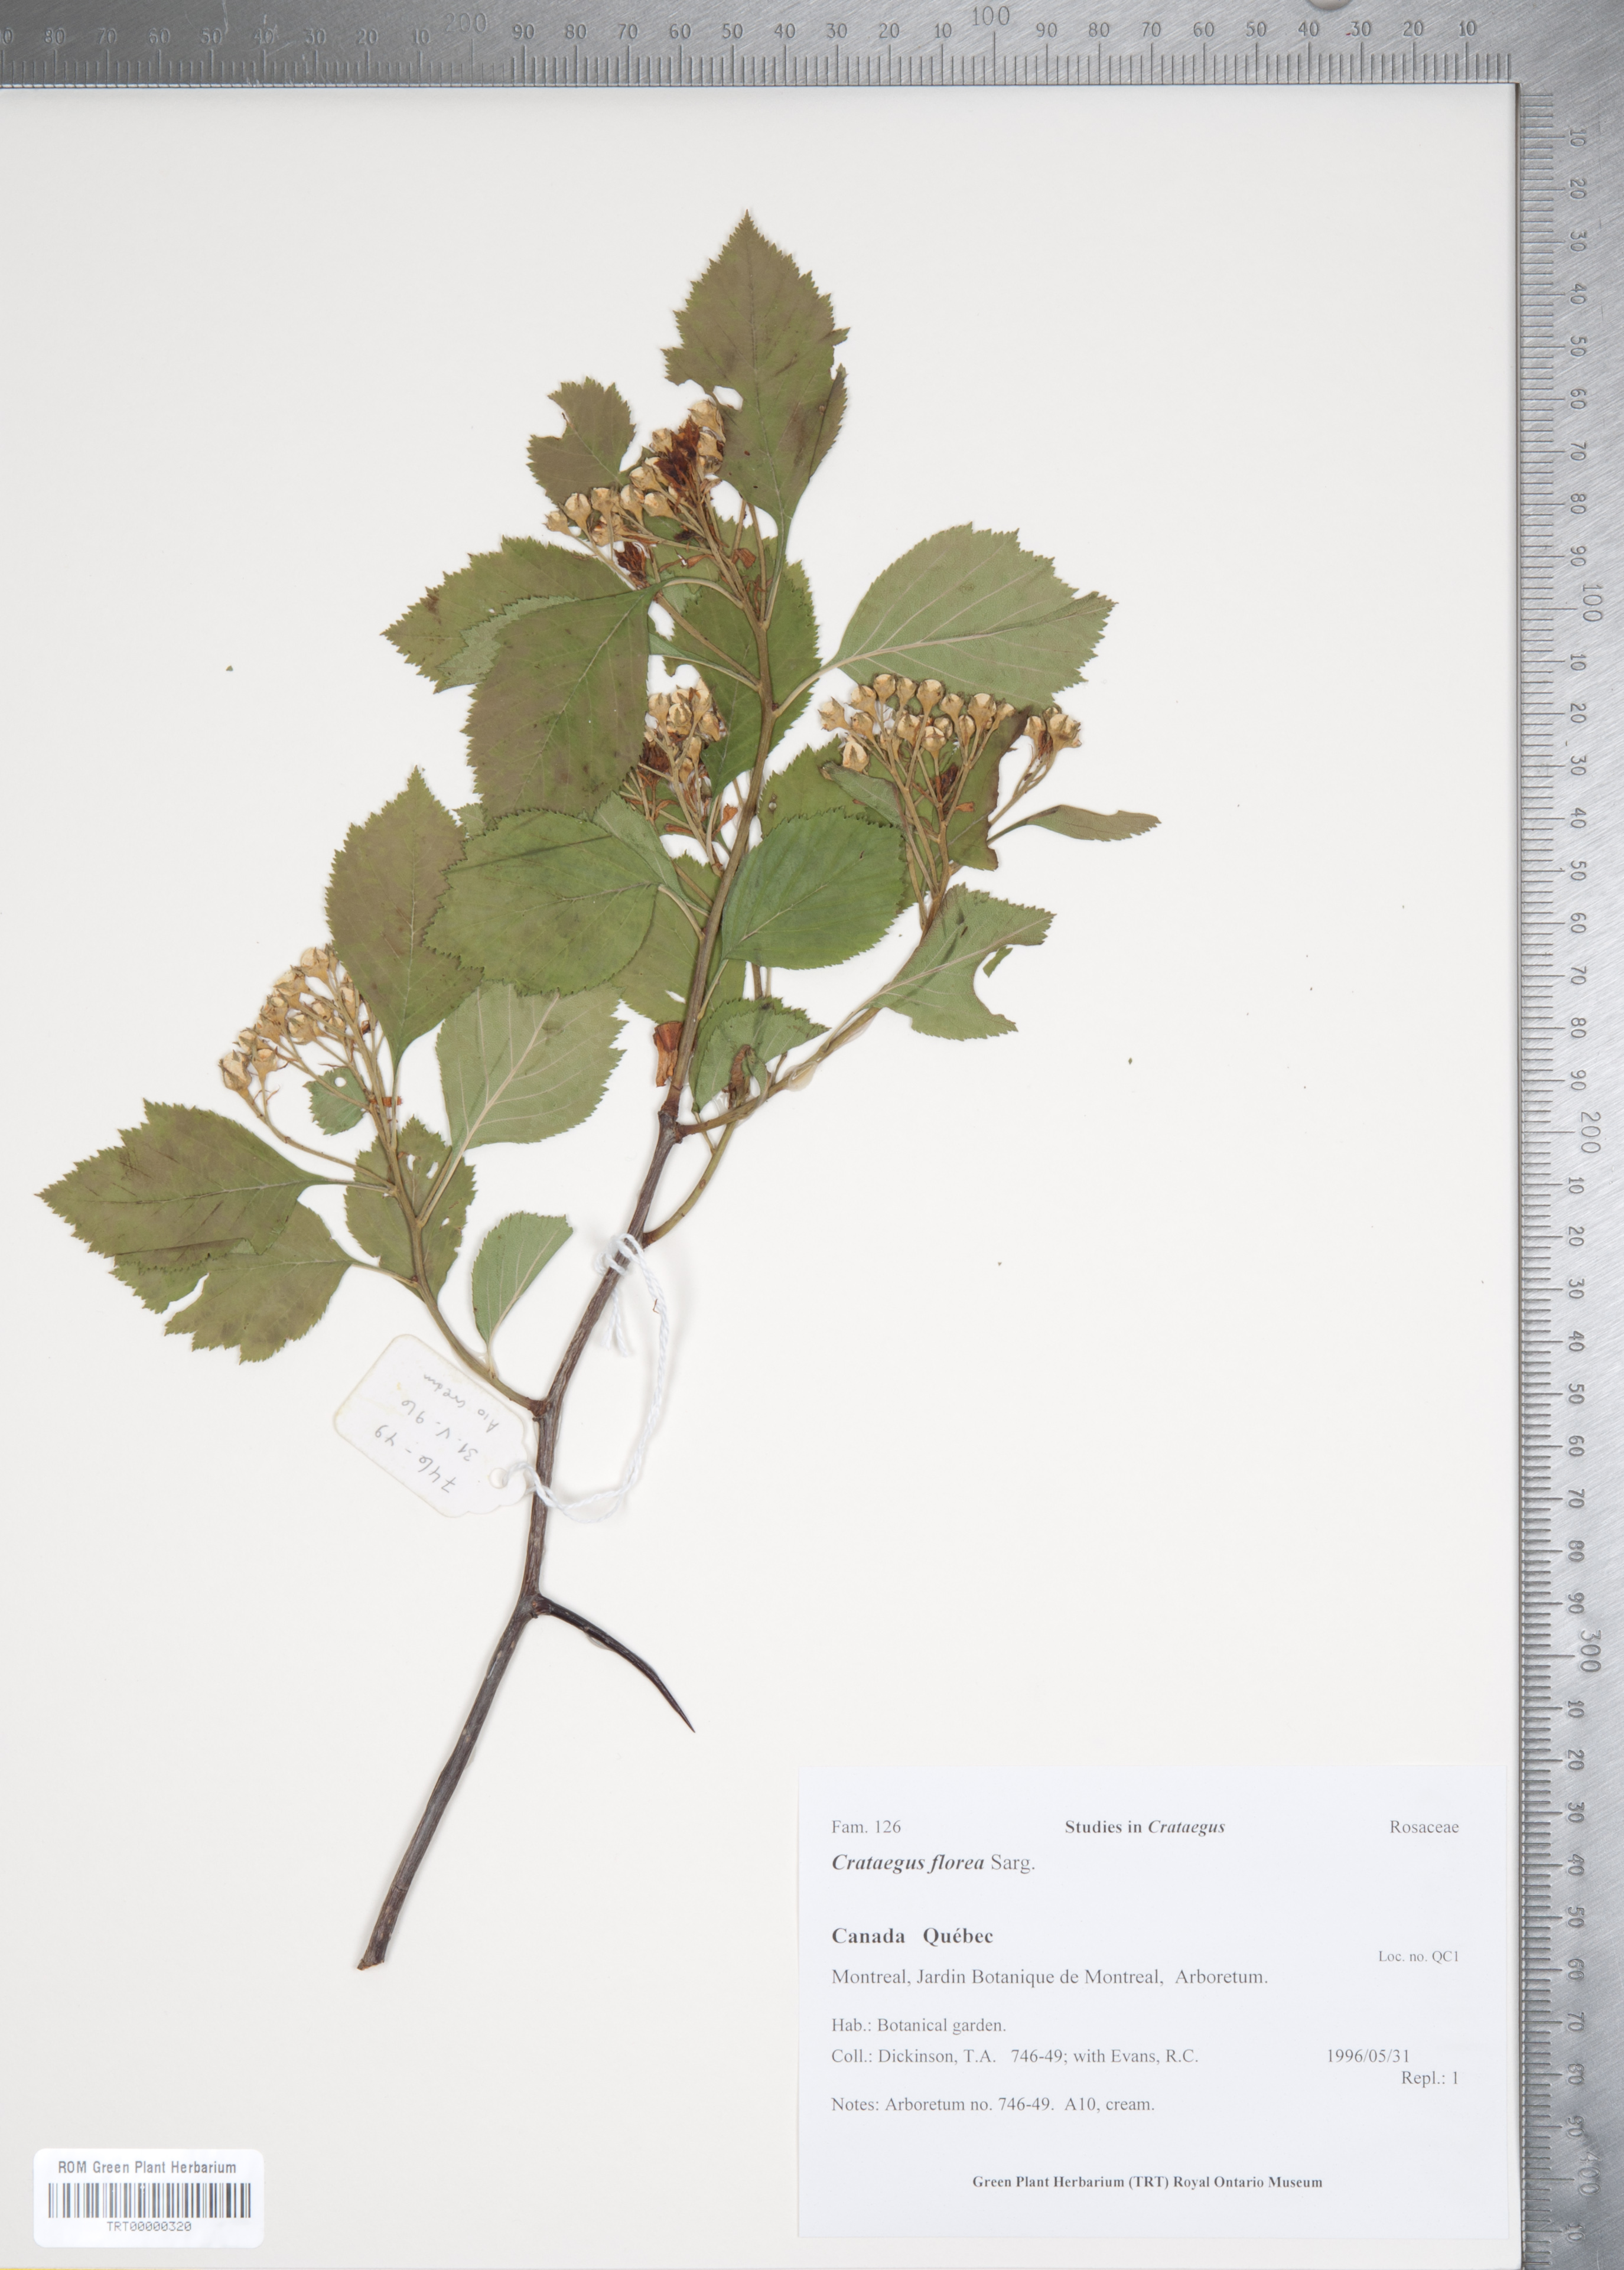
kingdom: Plantae
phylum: Tracheophyta
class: Magnoliopsida
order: Rosales
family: Rosaceae
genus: Crataegus
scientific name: Crataegus florea
